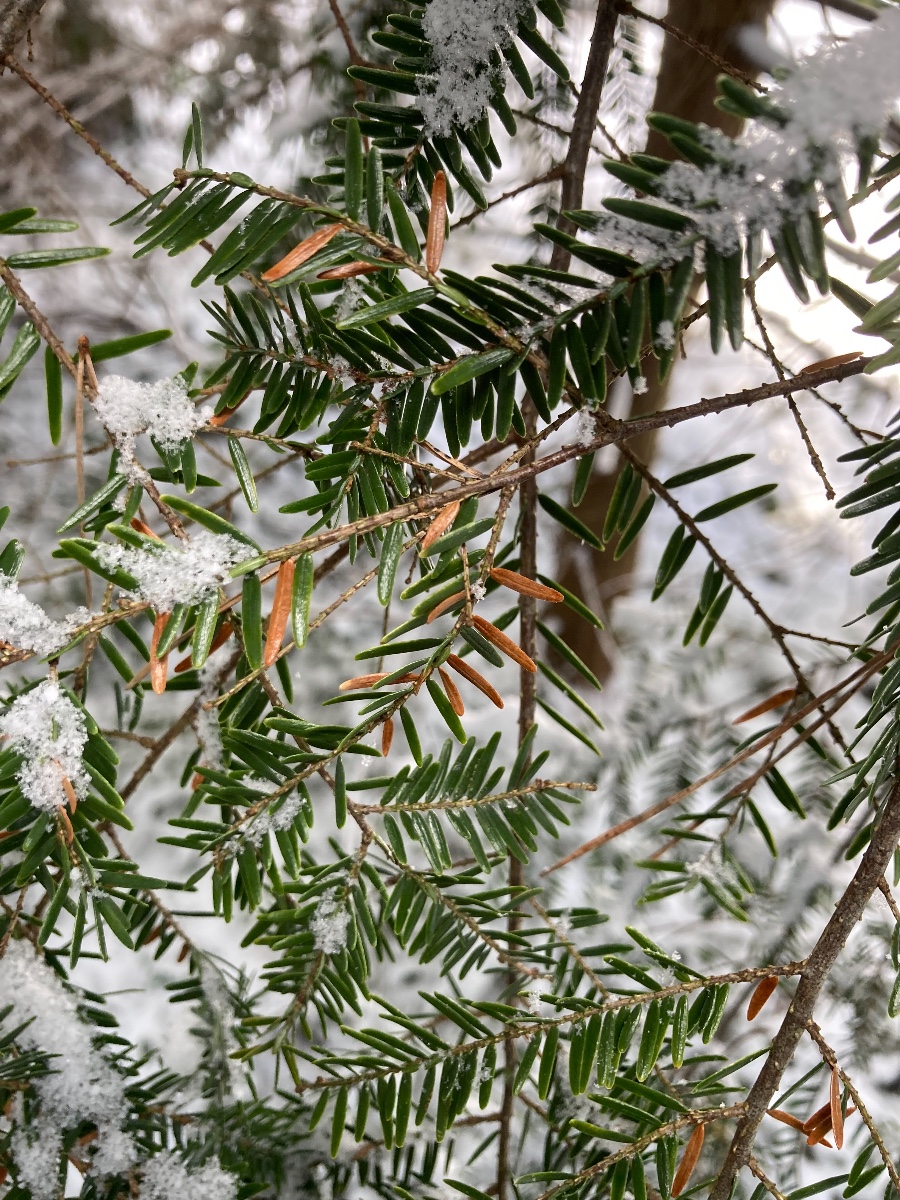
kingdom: Fungi
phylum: Ascomycota
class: Leotiomycetes
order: Helotiales
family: Cenangiaceae
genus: Fabrella
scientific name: Fabrella tsugae
